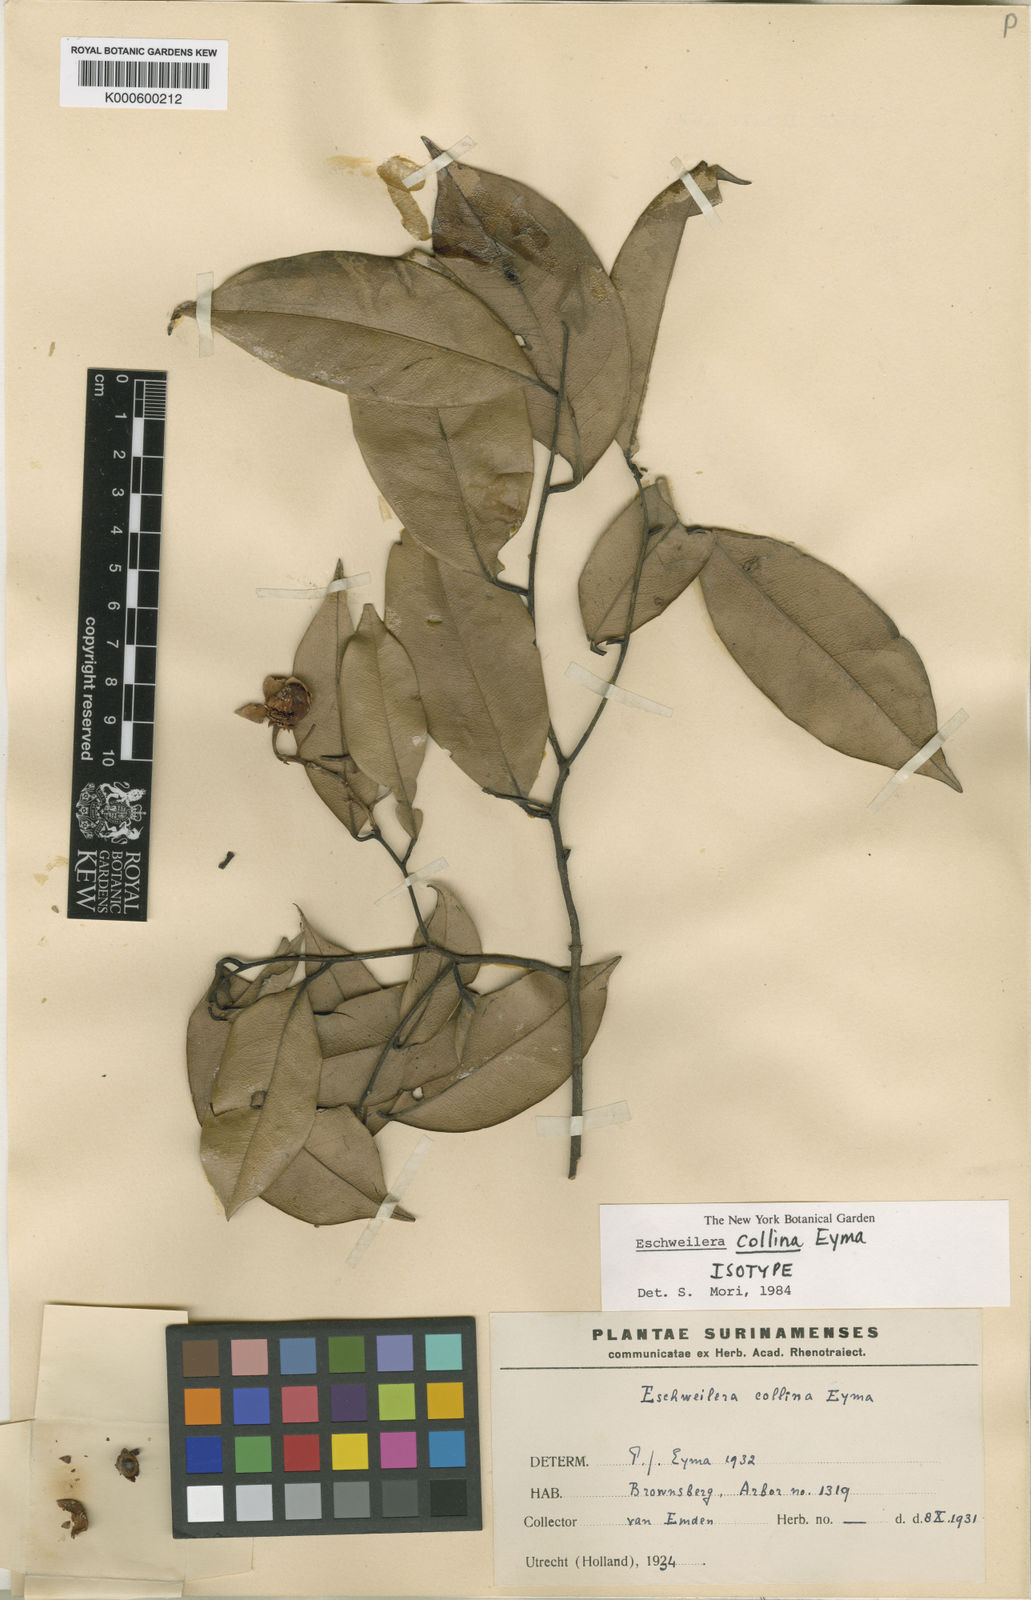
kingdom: Plantae
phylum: Tracheophyta
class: Magnoliopsida
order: Ericales
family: Lecythidaceae
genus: Eschweilera
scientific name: Eschweilera collina
